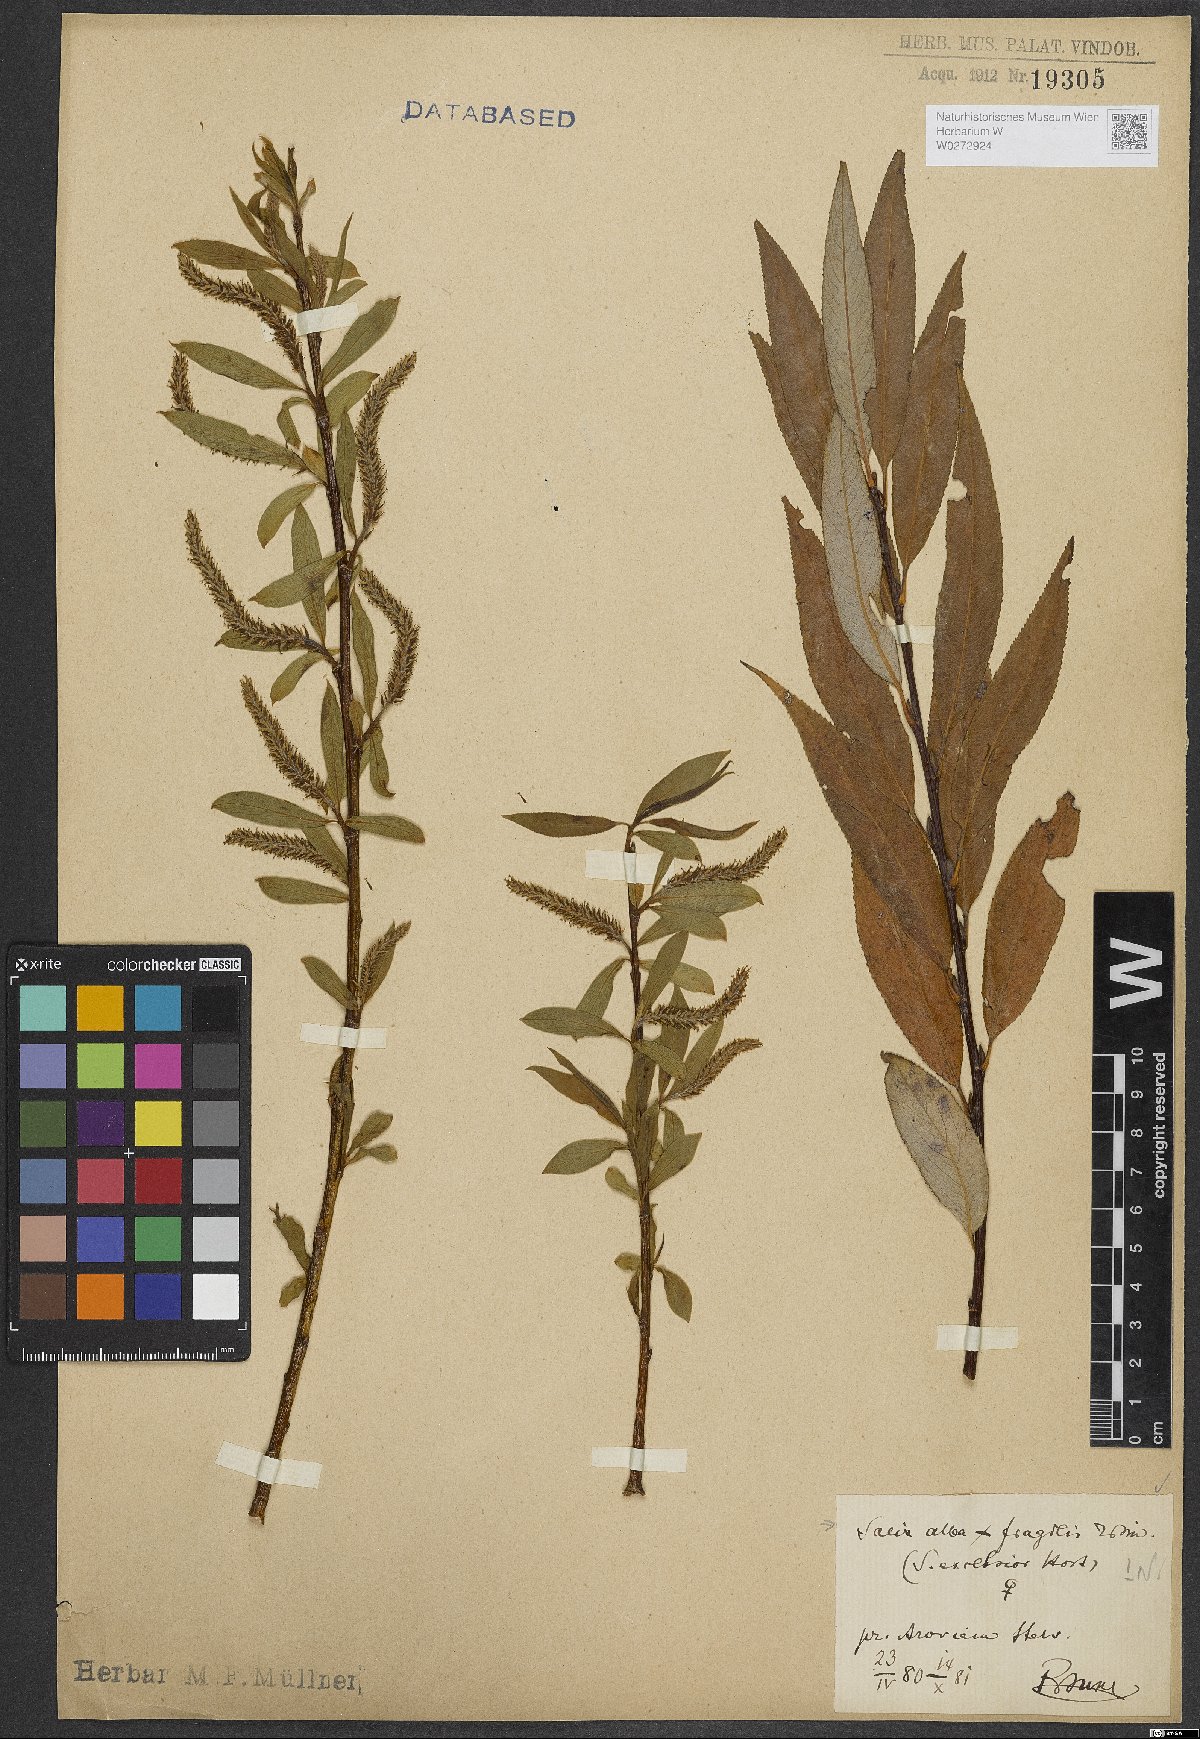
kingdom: Plantae
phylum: Tracheophyta
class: Magnoliopsida
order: Malpighiales
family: Salicaceae
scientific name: Salicaceae
